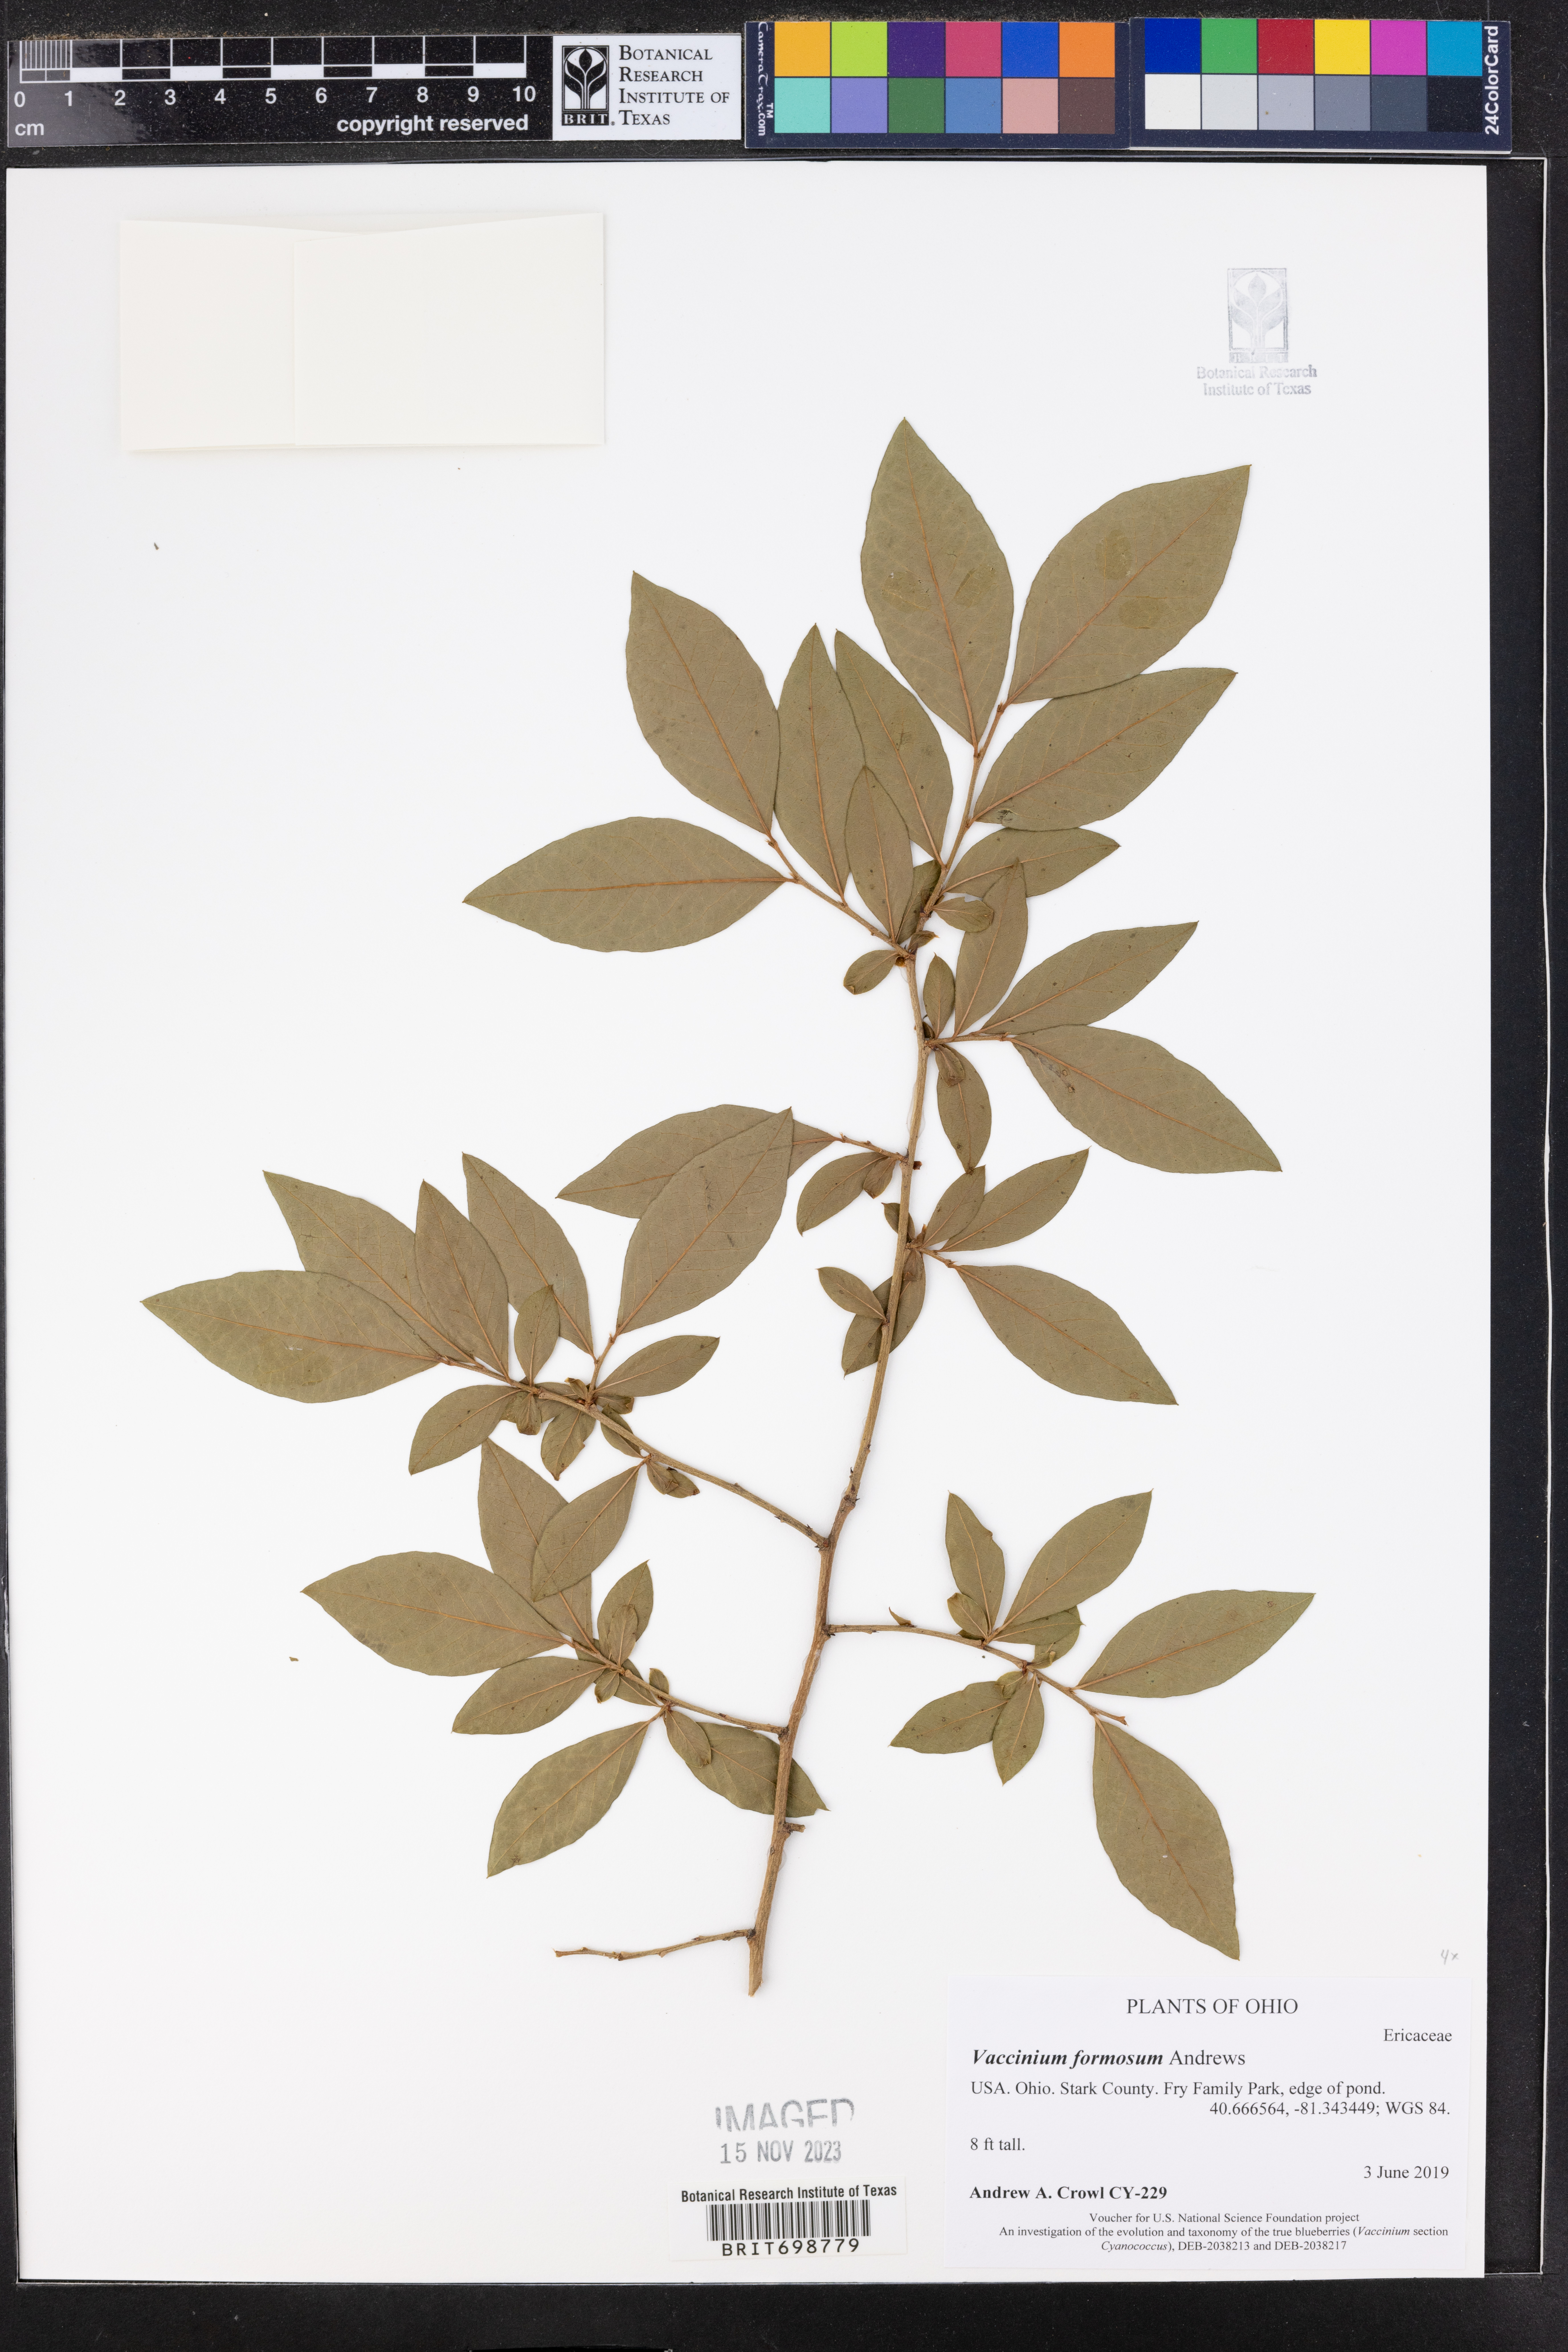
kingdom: Plantae
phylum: Tracheophyta
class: Magnoliopsida
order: Ericales
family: Ericaceae
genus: Vaccinium
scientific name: Vaccinium corymbosum
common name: Blueberry
